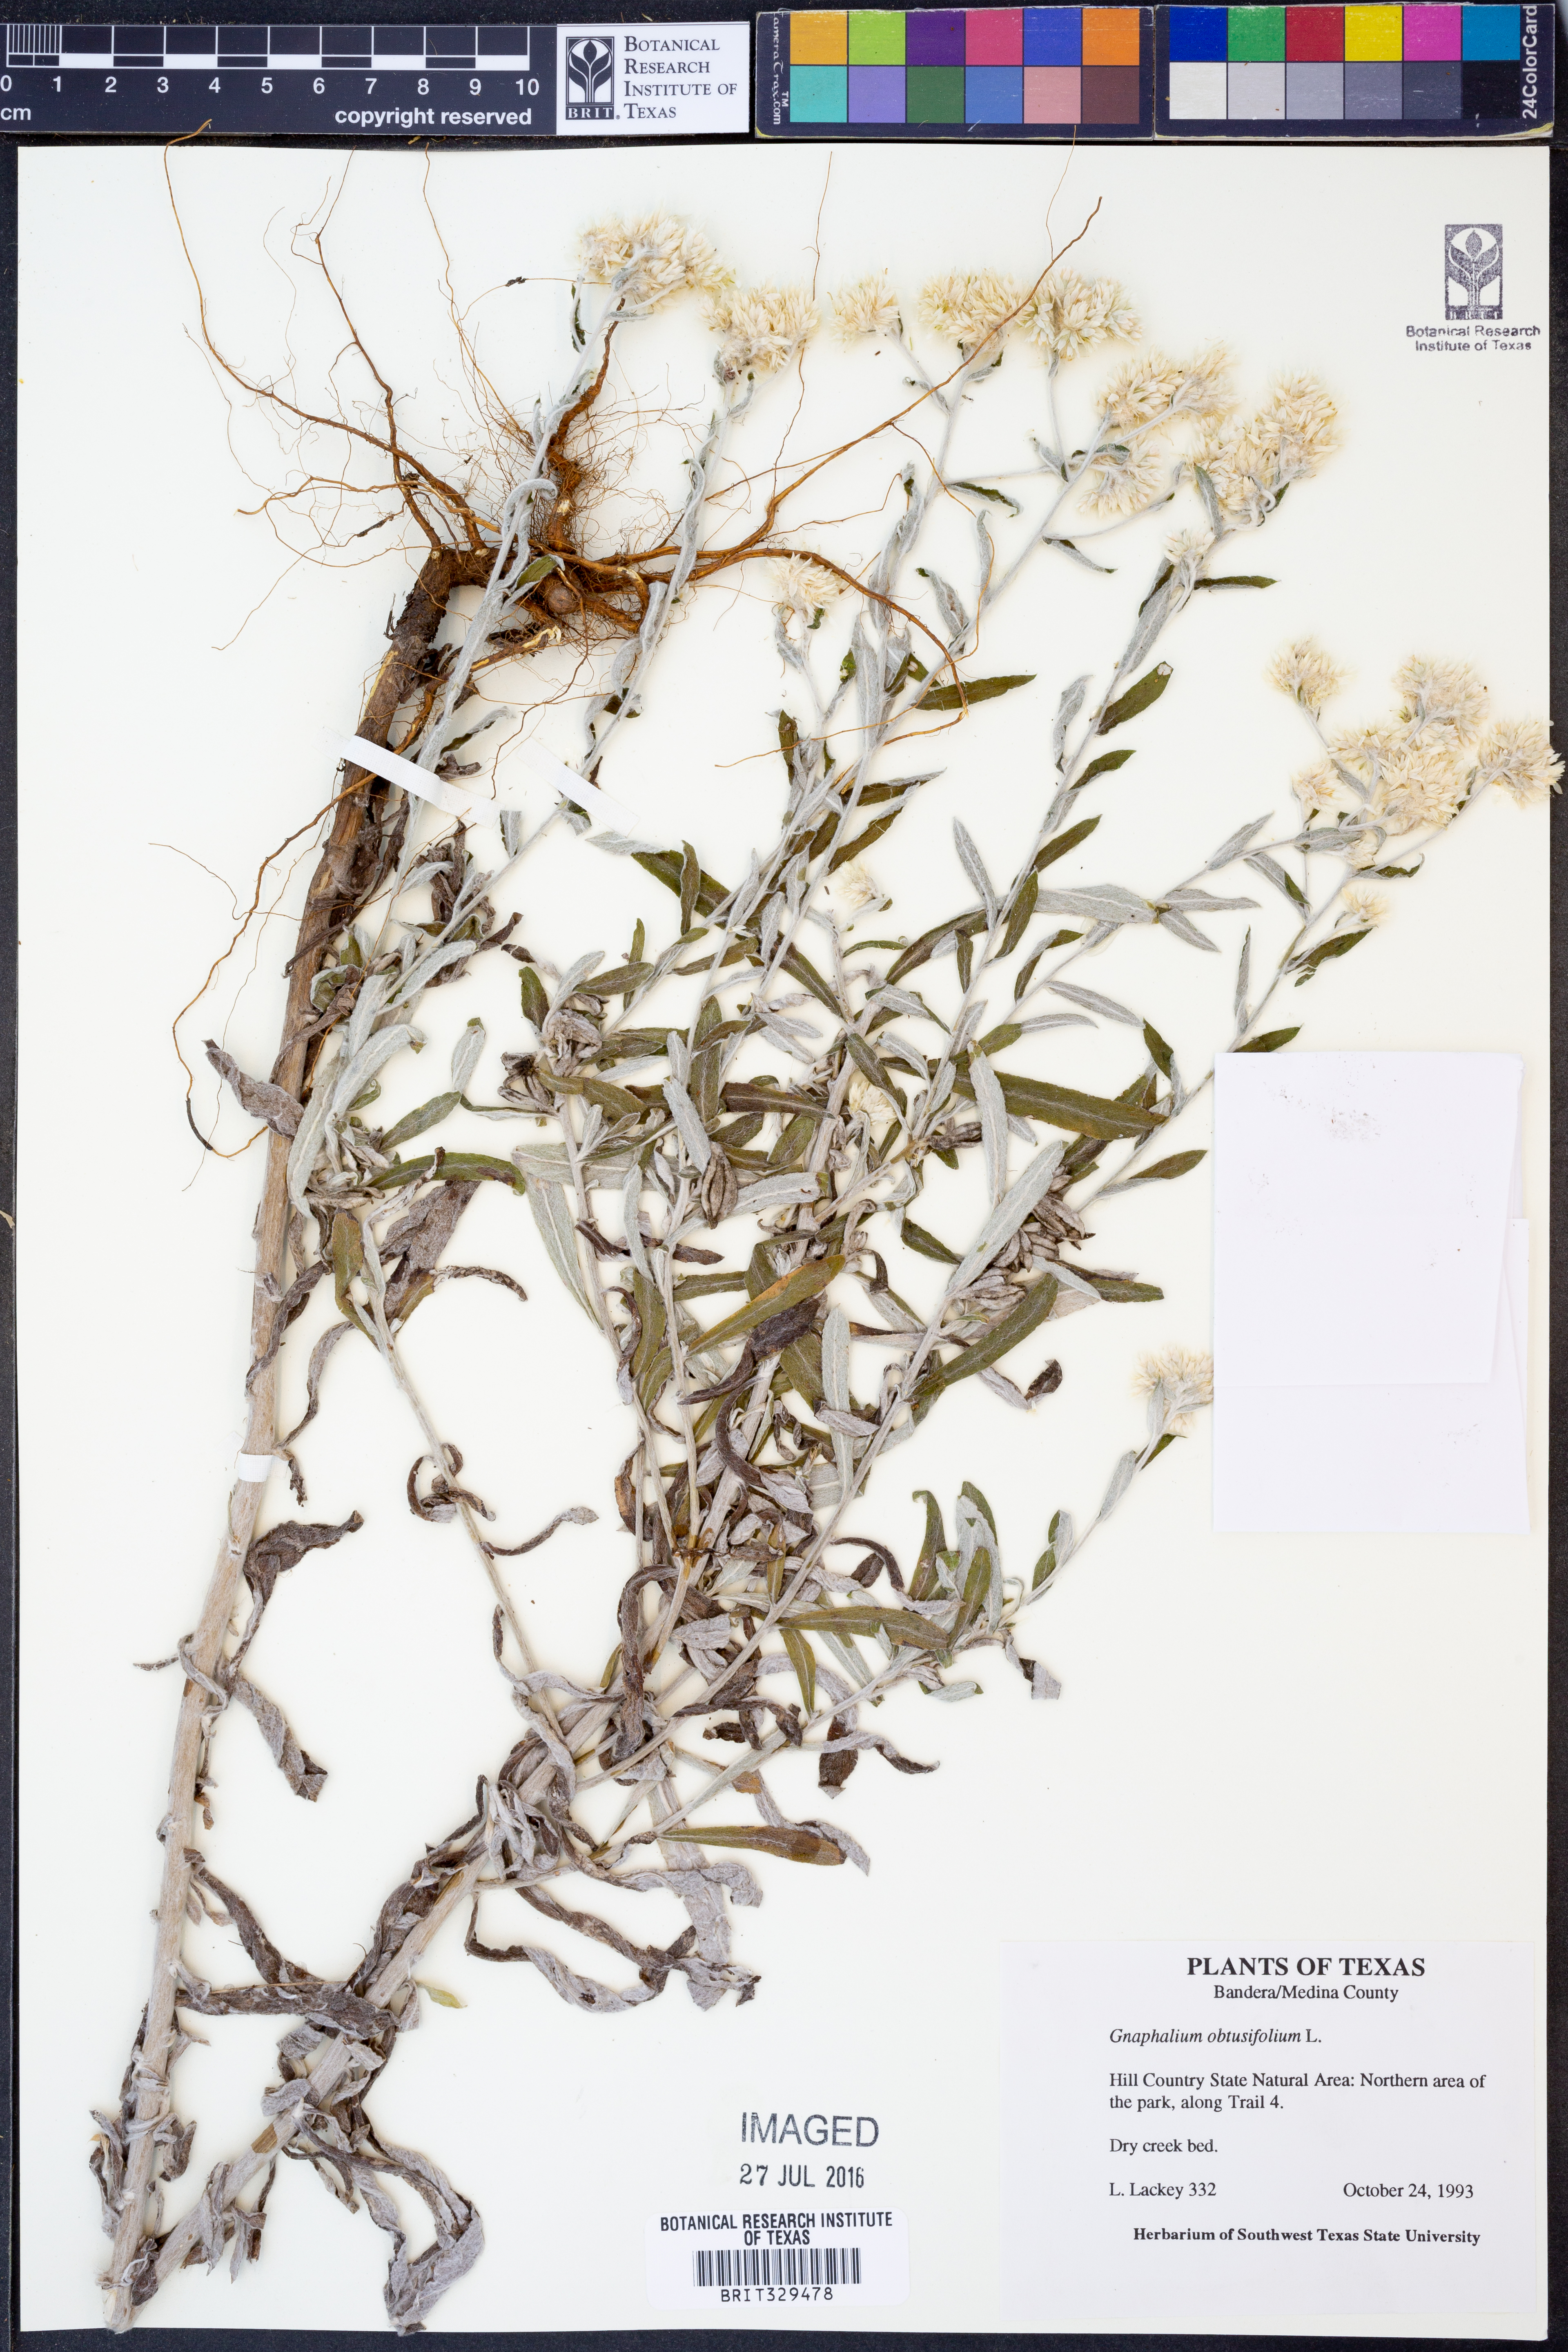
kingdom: Plantae
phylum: Tracheophyta
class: Magnoliopsida
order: Asterales
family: Asteraceae
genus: Pseudognaphalium
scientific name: Pseudognaphalium obtusifolium
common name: Eastern rabbit-tobacco
